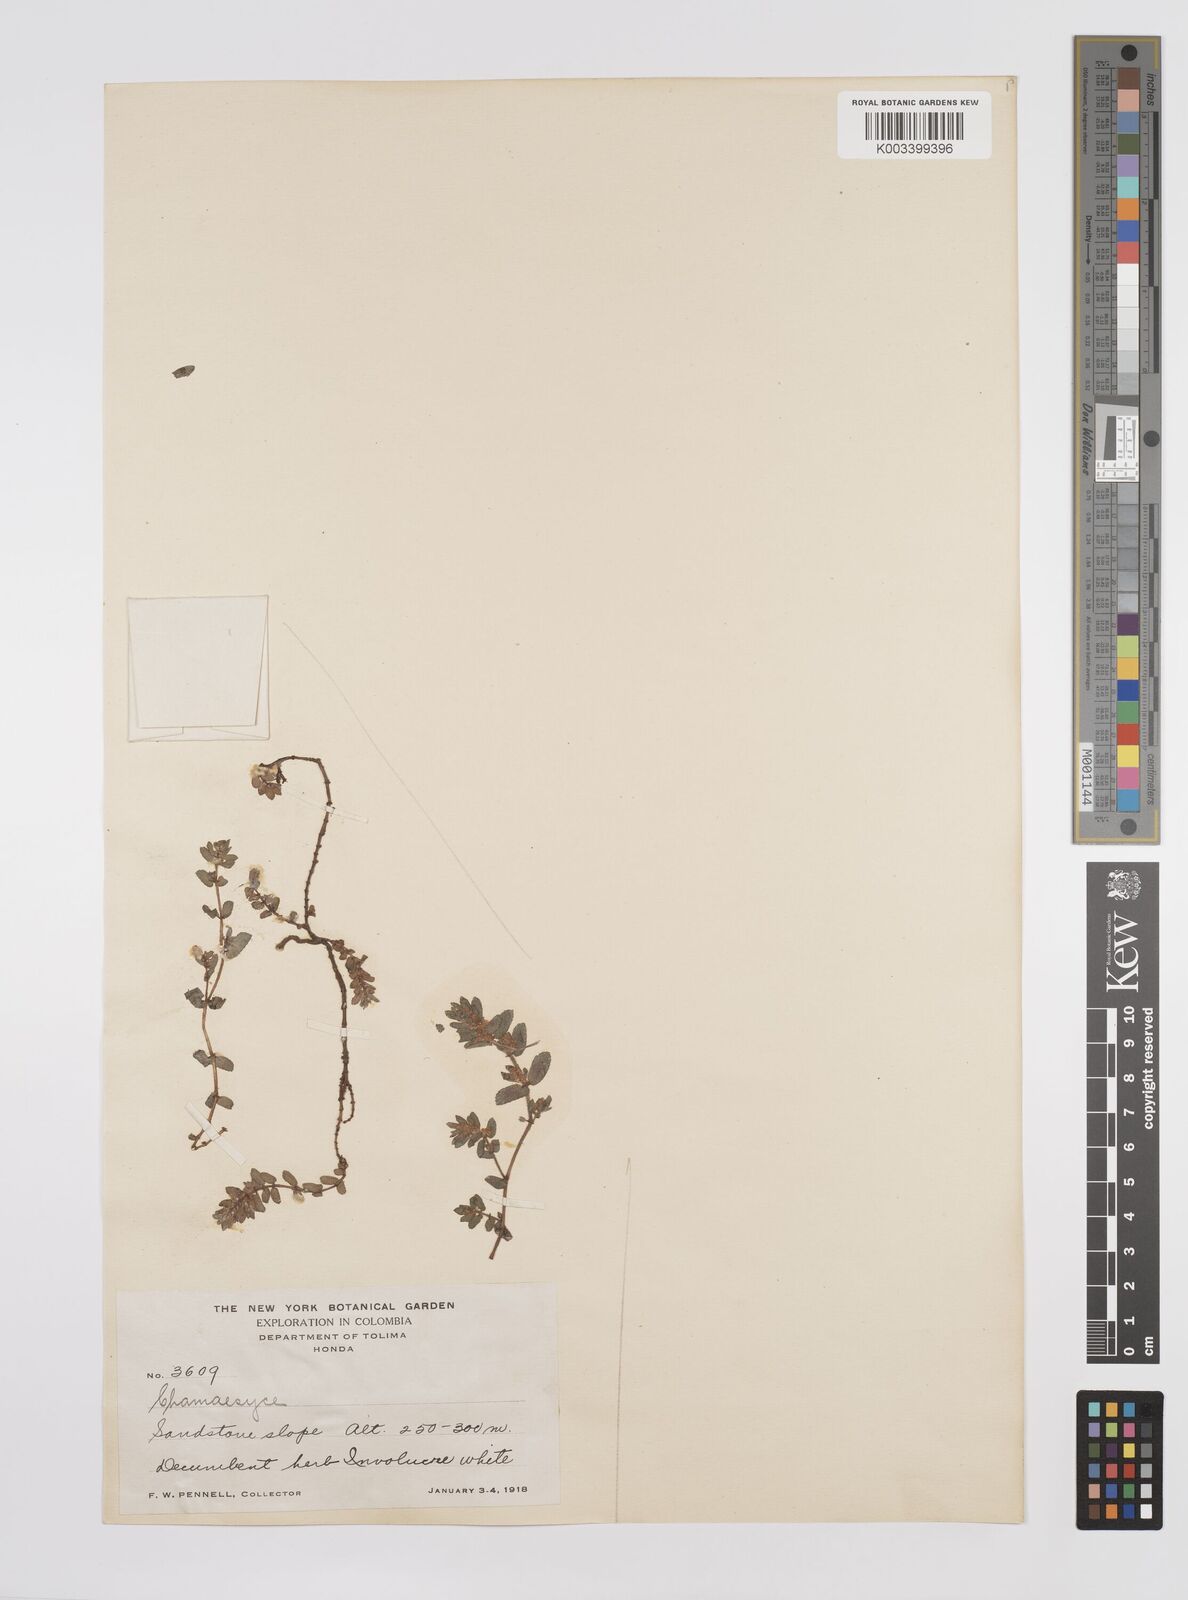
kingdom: Plantae
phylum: Tracheophyta
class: Magnoliopsida
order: Malpighiales
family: Euphorbiaceae
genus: Euphorbia
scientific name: Euphorbia
